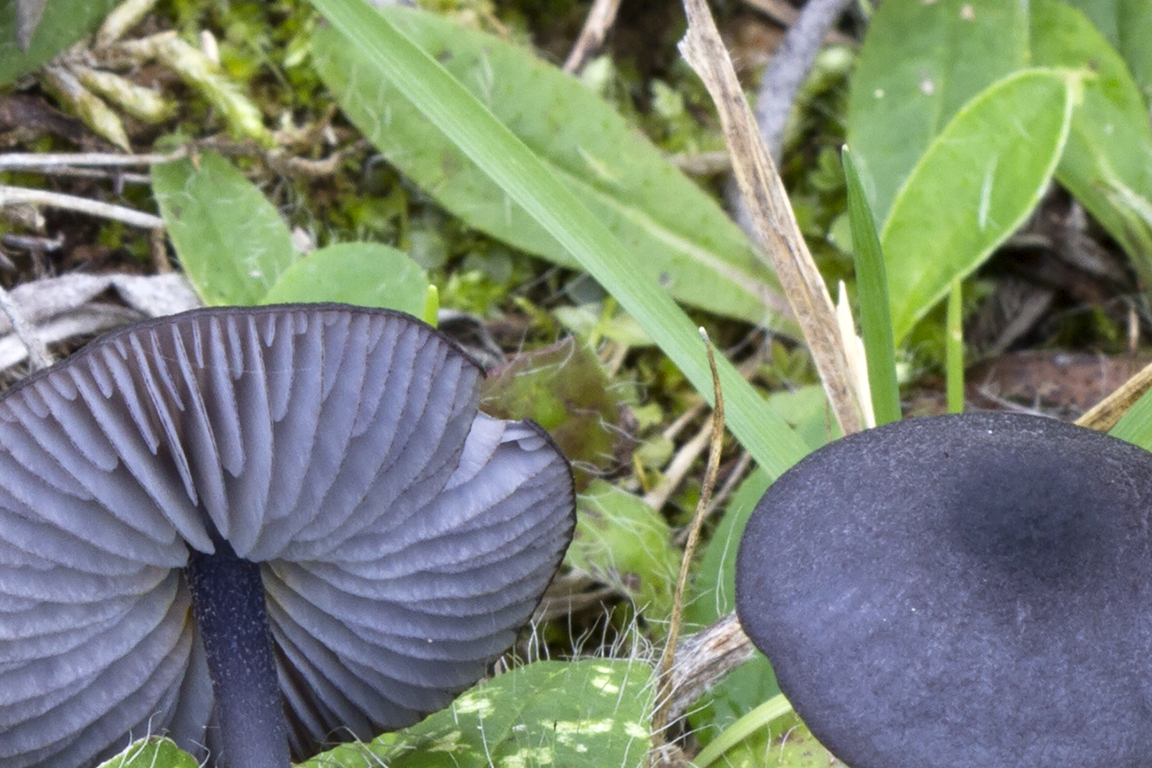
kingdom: Fungi
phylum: Basidiomycota
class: Agaricomycetes
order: Agaricales
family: Entolomataceae
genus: Entoloma
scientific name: Entoloma chalybeum
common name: blåbladet rødblad
